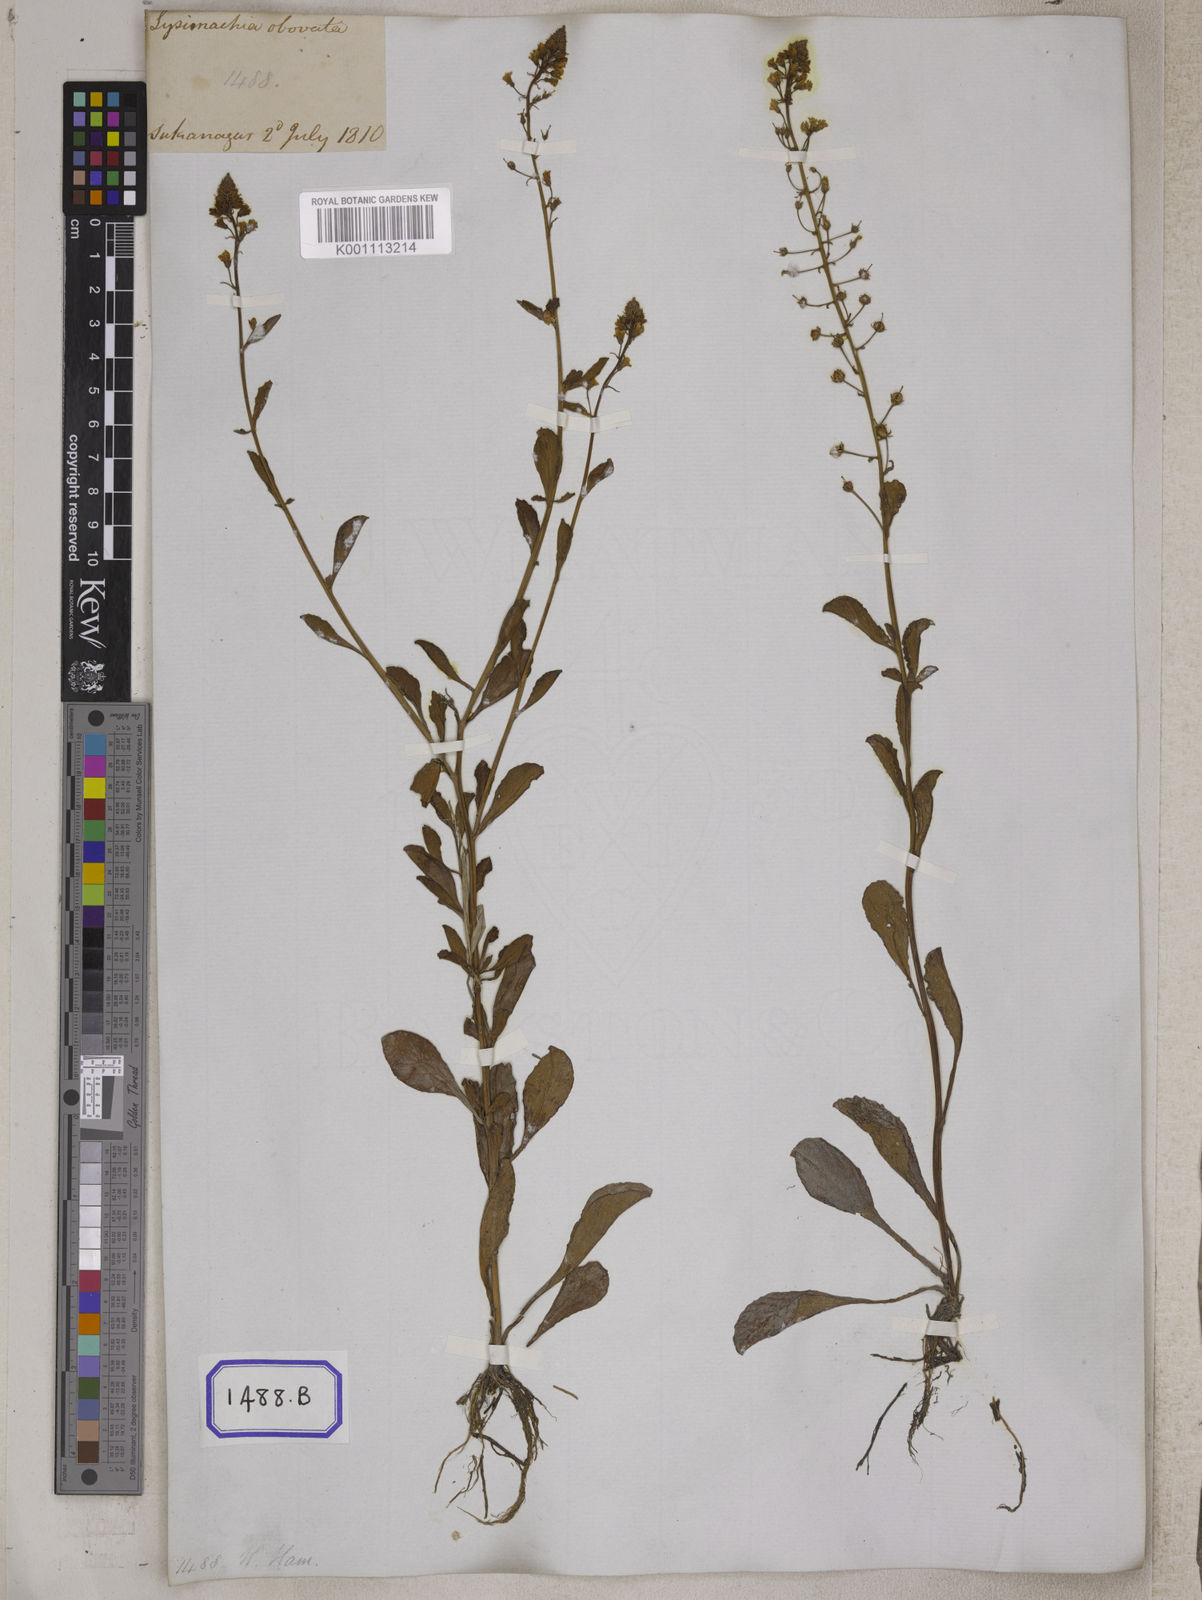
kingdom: Plantae
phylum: Tracheophyta
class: Magnoliopsida
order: Ericales
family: Primulaceae
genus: Lysimachia
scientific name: Lysimachia candida
